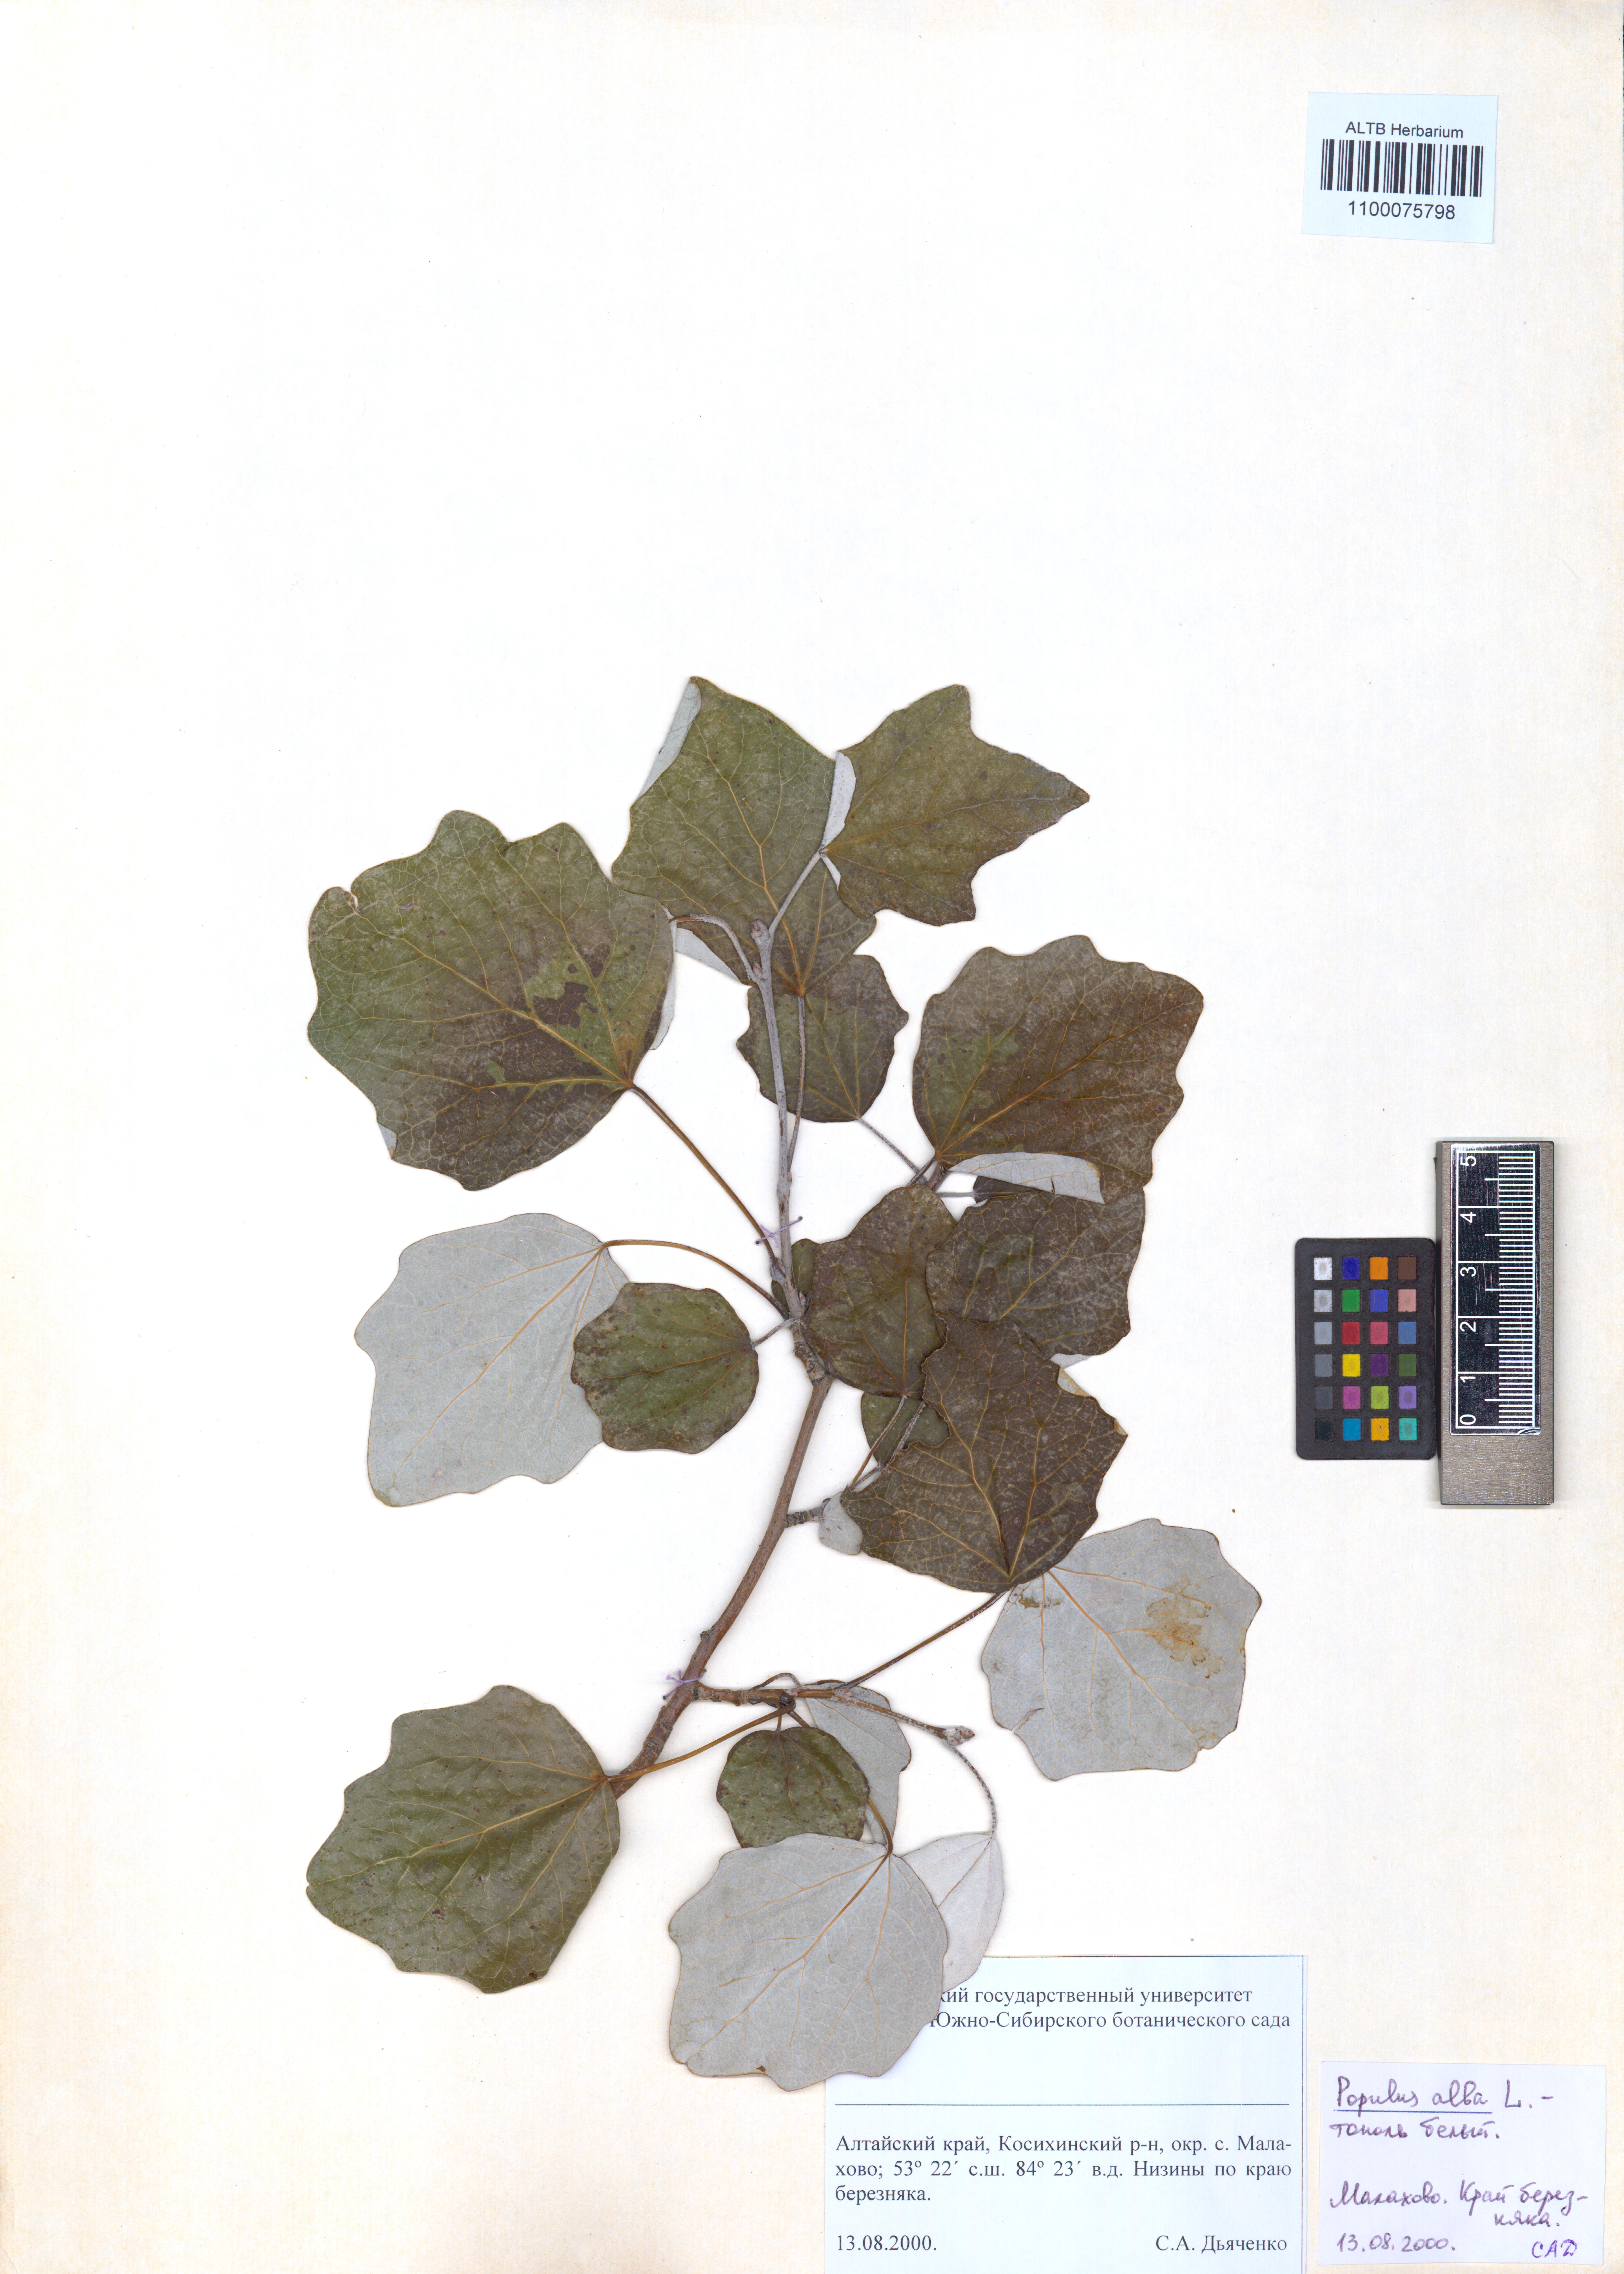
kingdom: Plantae
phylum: Tracheophyta
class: Magnoliopsida
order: Malpighiales
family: Salicaceae
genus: Populus
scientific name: Populus alba
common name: White poplar
